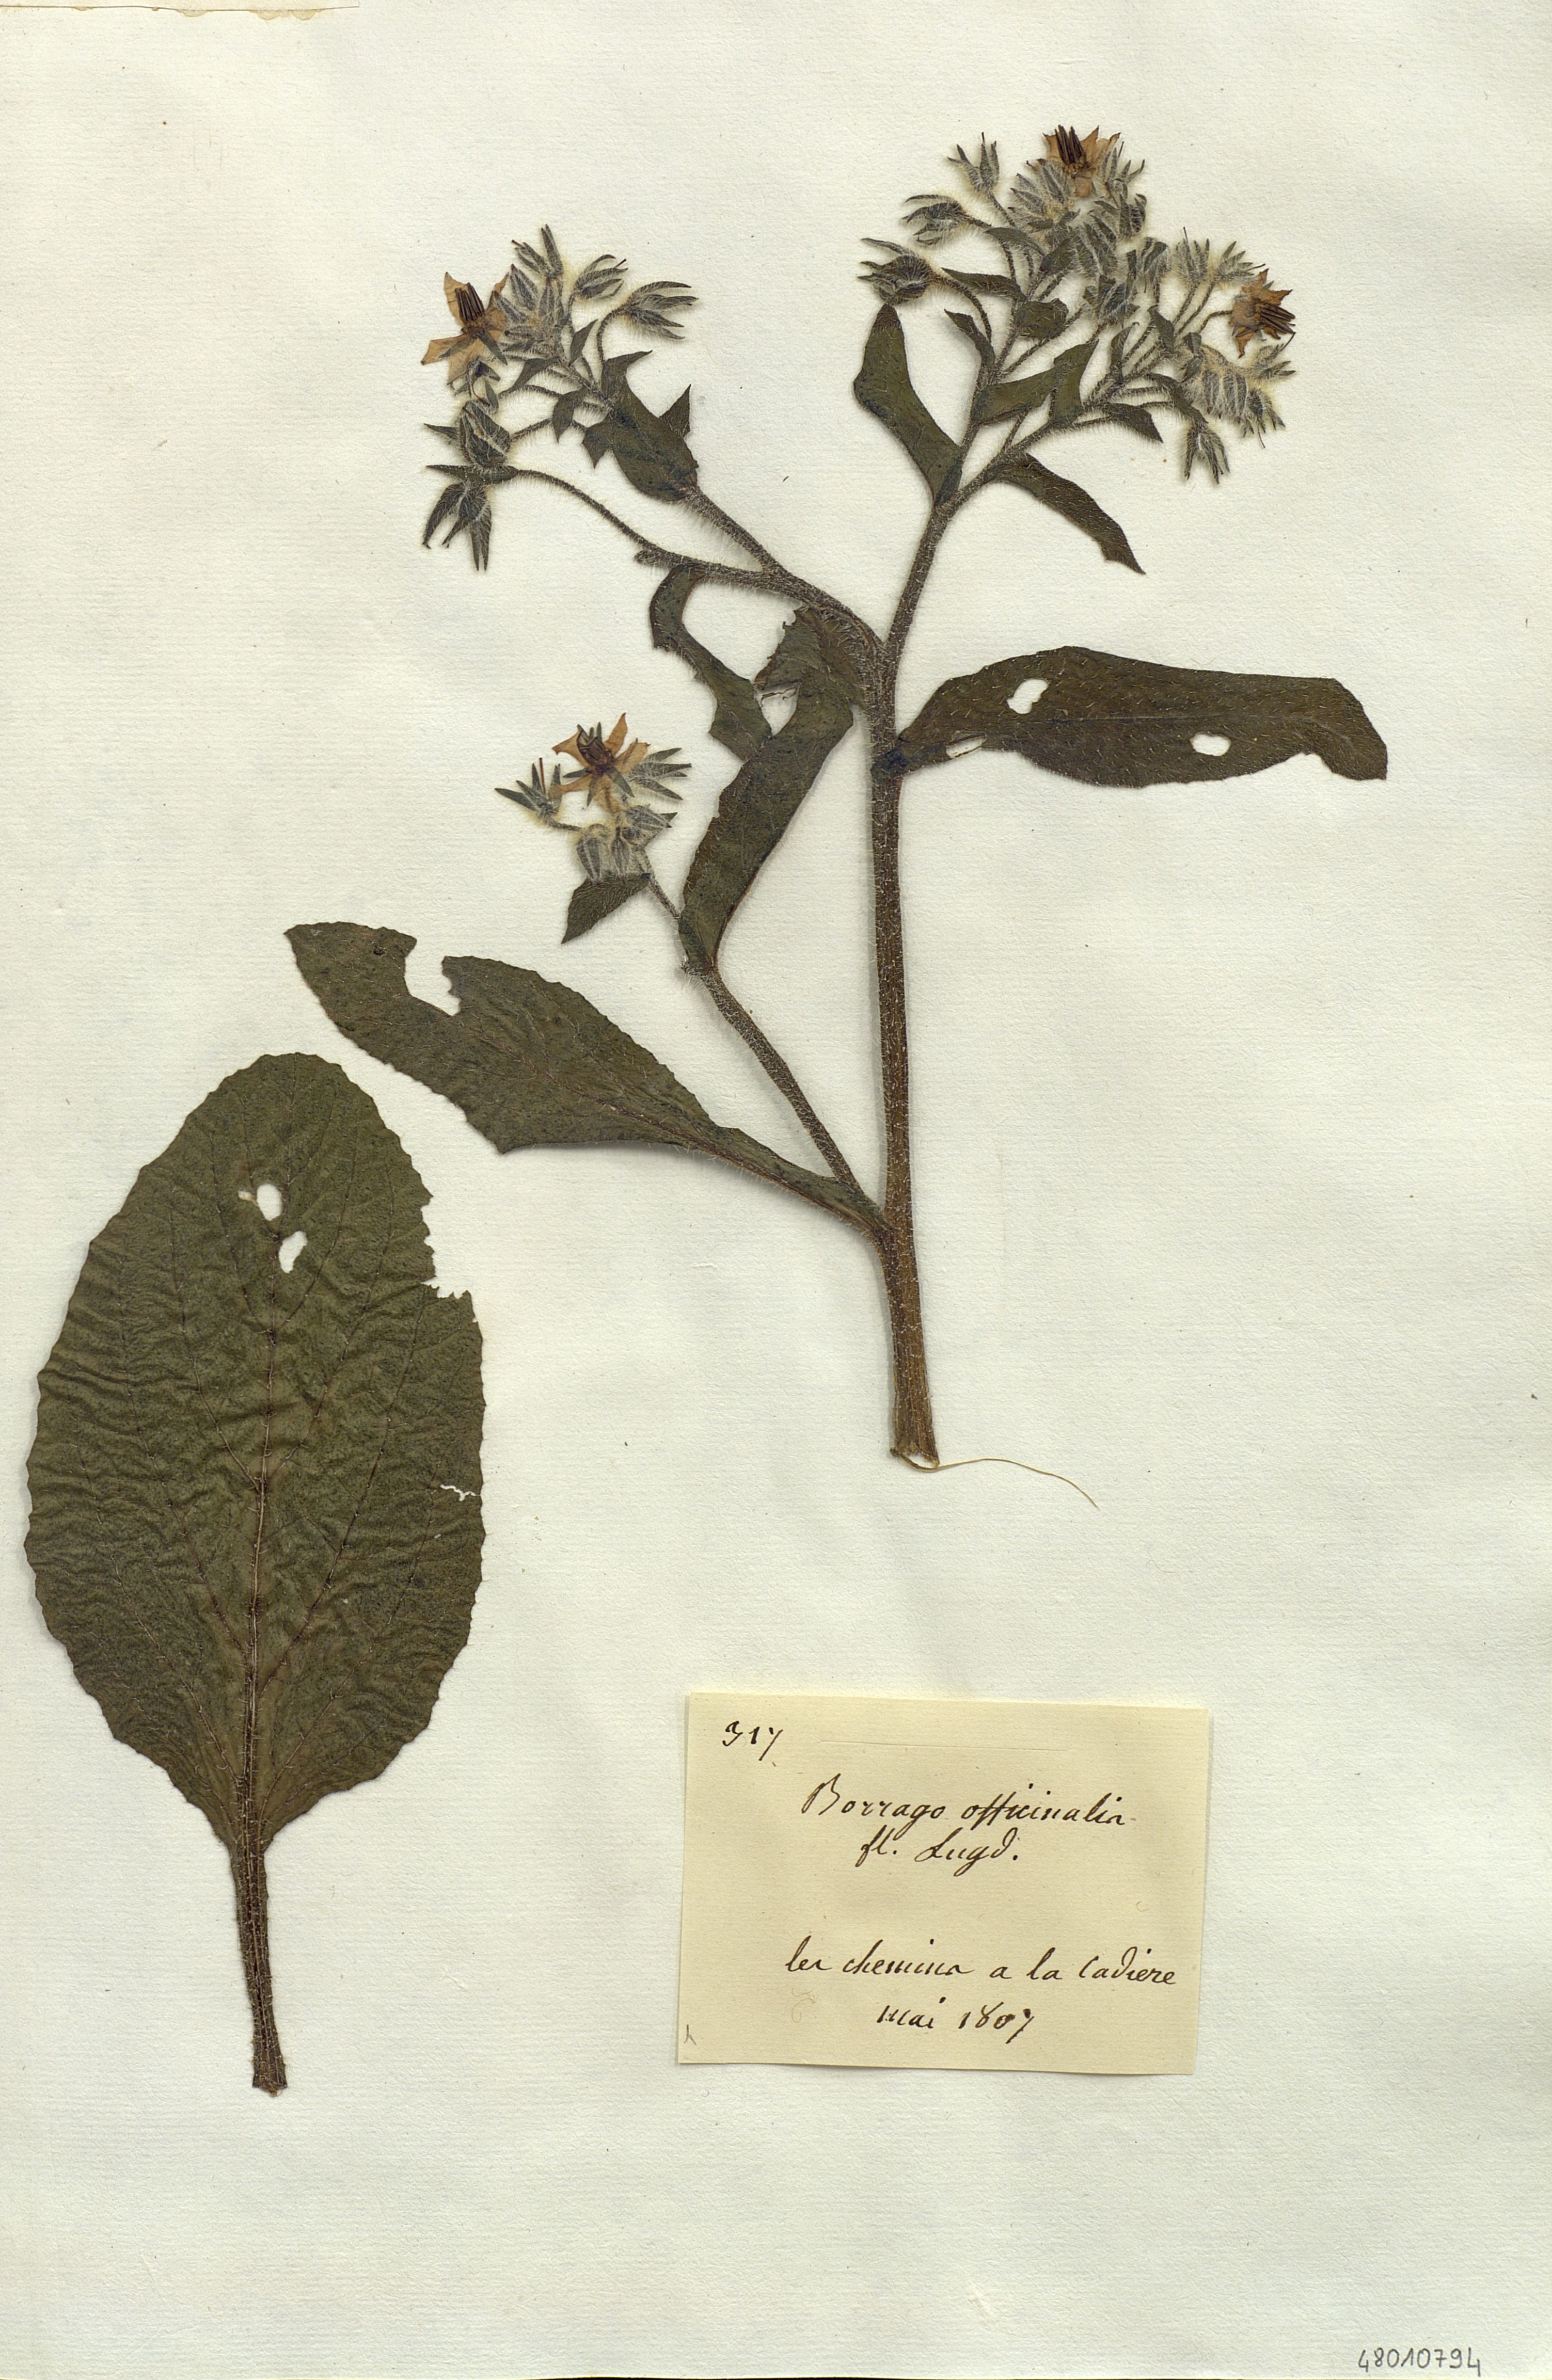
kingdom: Plantae
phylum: Tracheophyta
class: Magnoliopsida
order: Boraginales
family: Boraginaceae
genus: Borago
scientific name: Borago officinalis
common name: Borage
